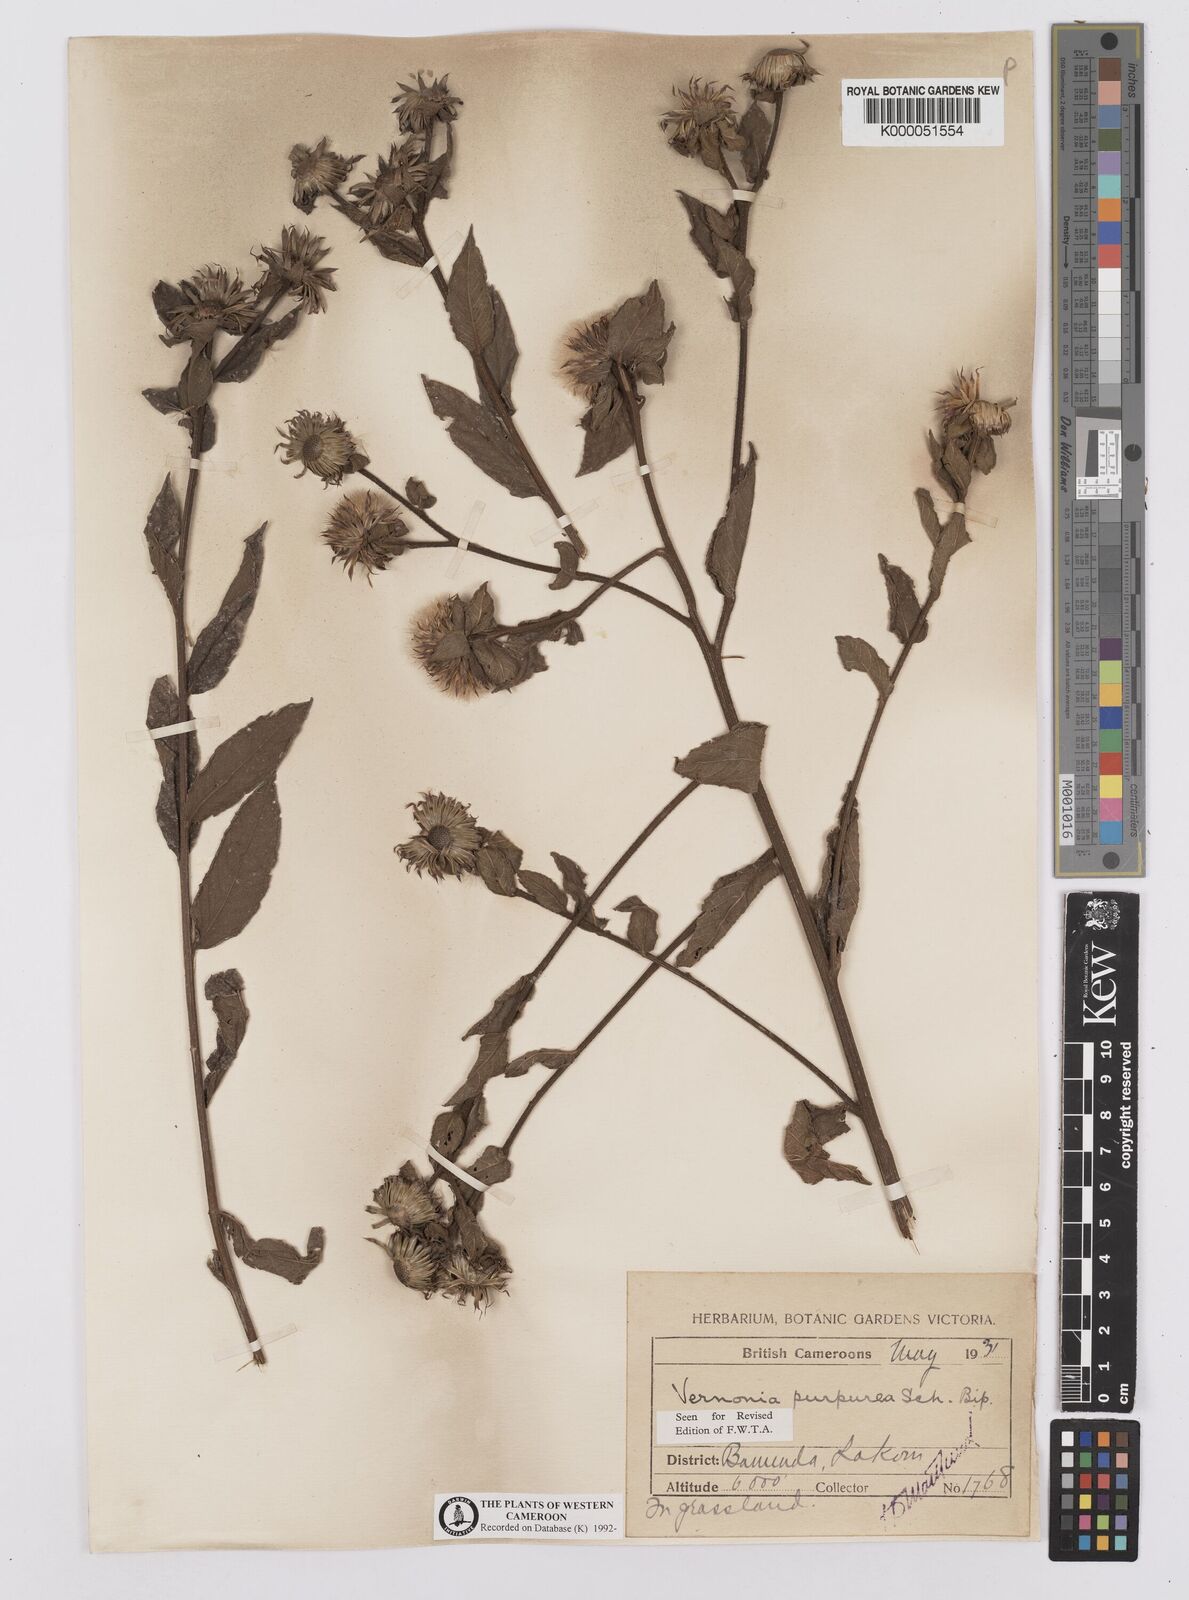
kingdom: Plantae
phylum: Tracheophyta
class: Magnoliopsida
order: Asterales
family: Asteraceae
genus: Vernonia
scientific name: Vernonia
